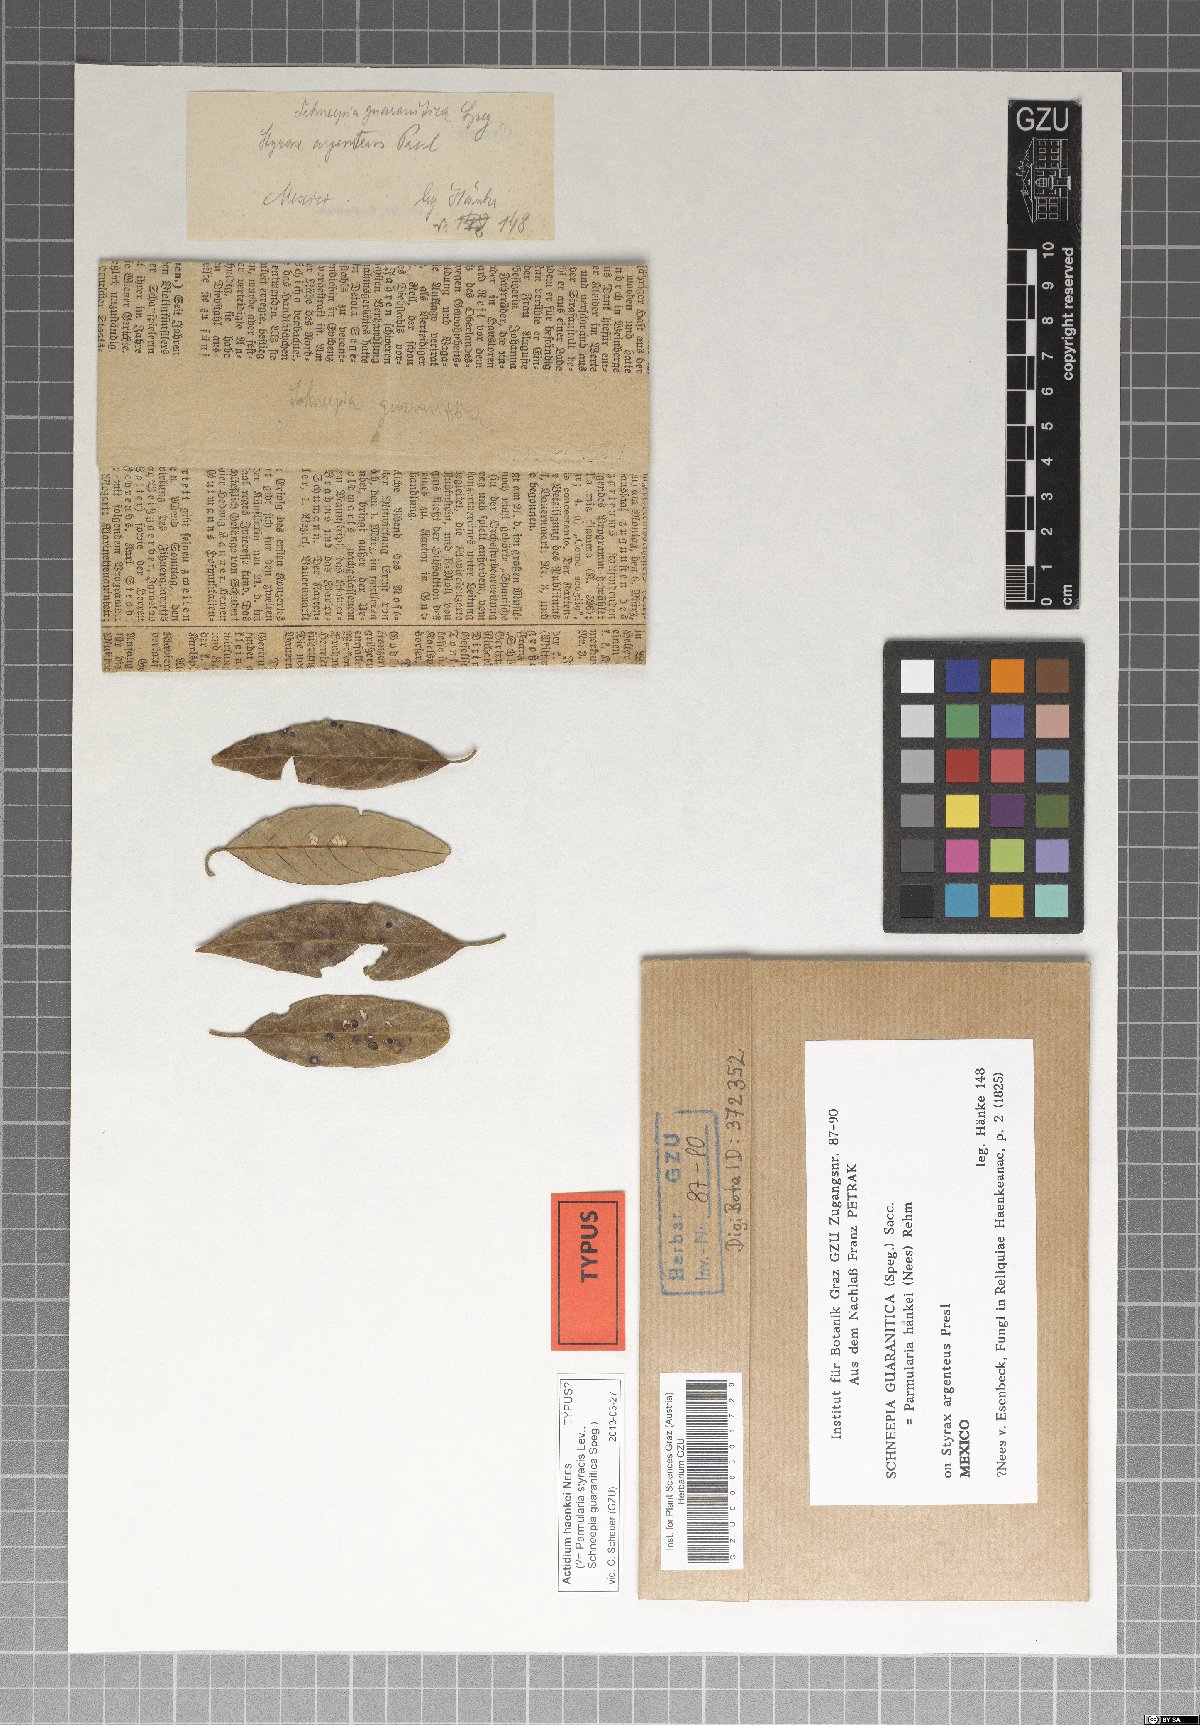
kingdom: Fungi
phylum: Ascomycota
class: Dothideomycetes
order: Asterinales
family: Parmulariaceae
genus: Parmularia
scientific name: Parmularia haenkei
